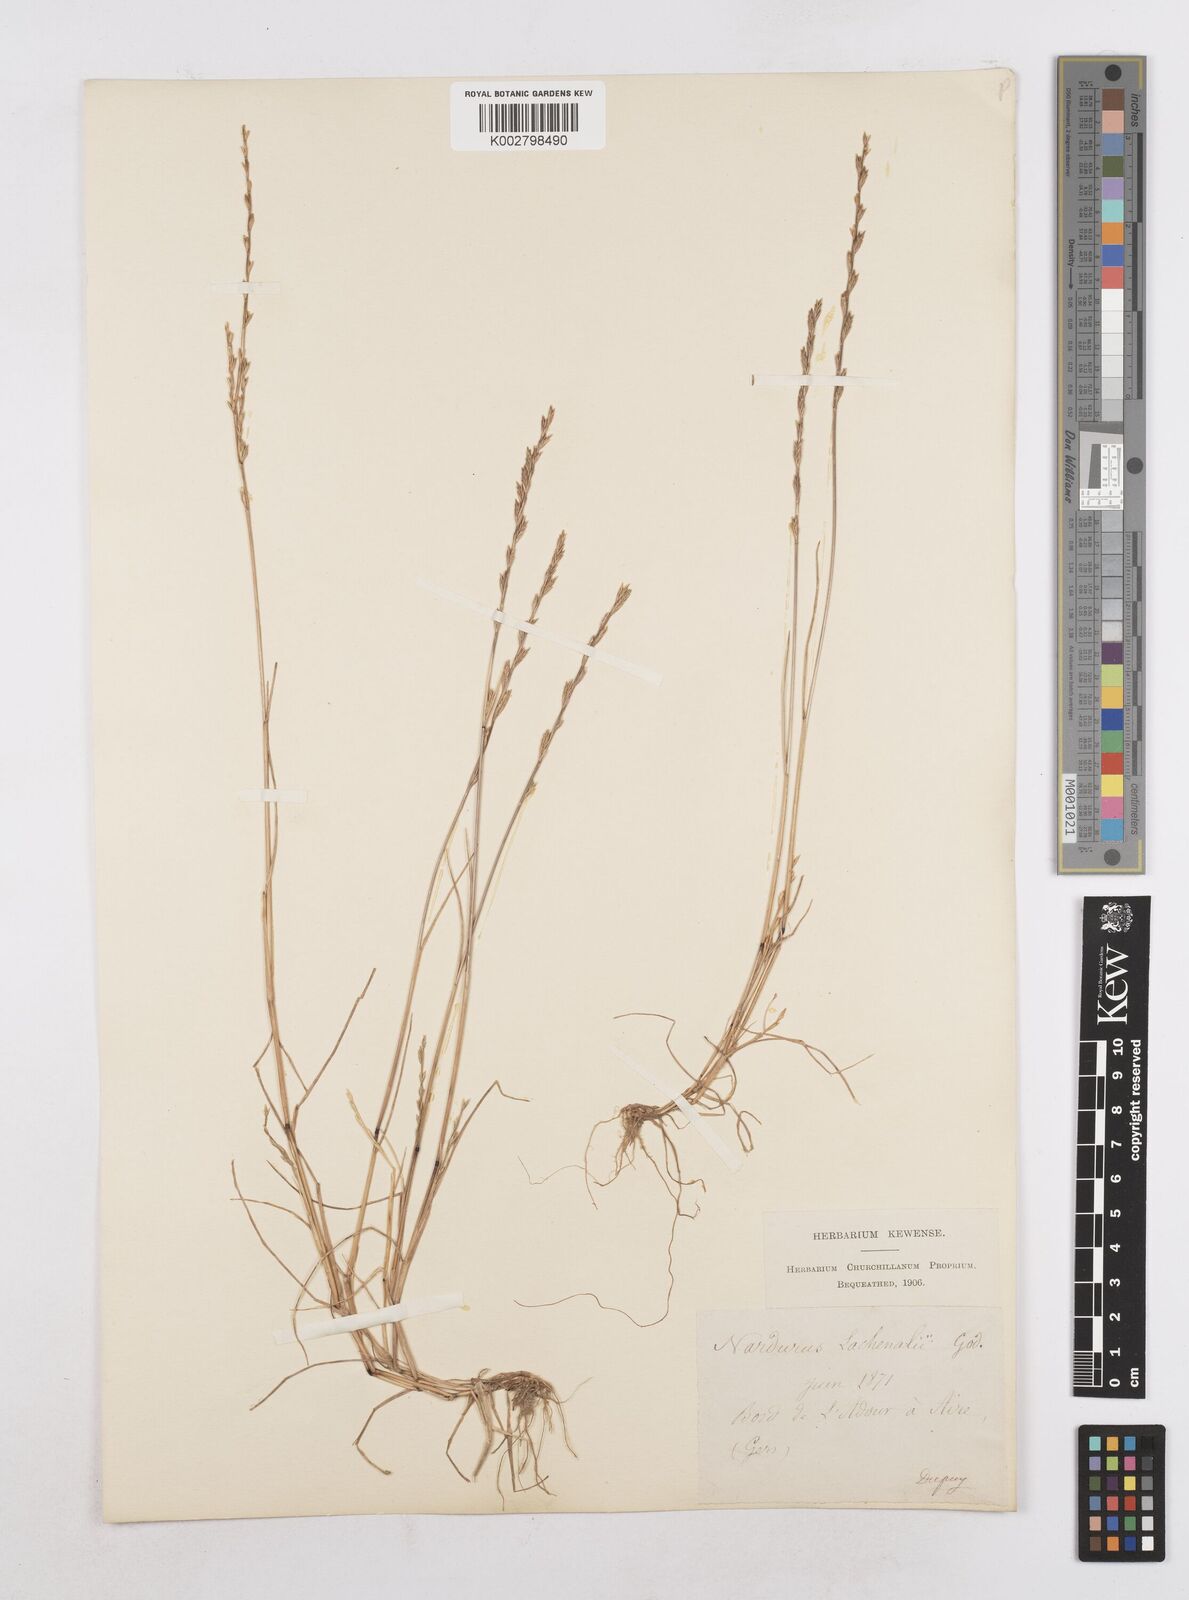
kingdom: Plantae
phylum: Tracheophyta
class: Liliopsida
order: Poales
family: Poaceae
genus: Festuca
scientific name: Festuca lachenalii
